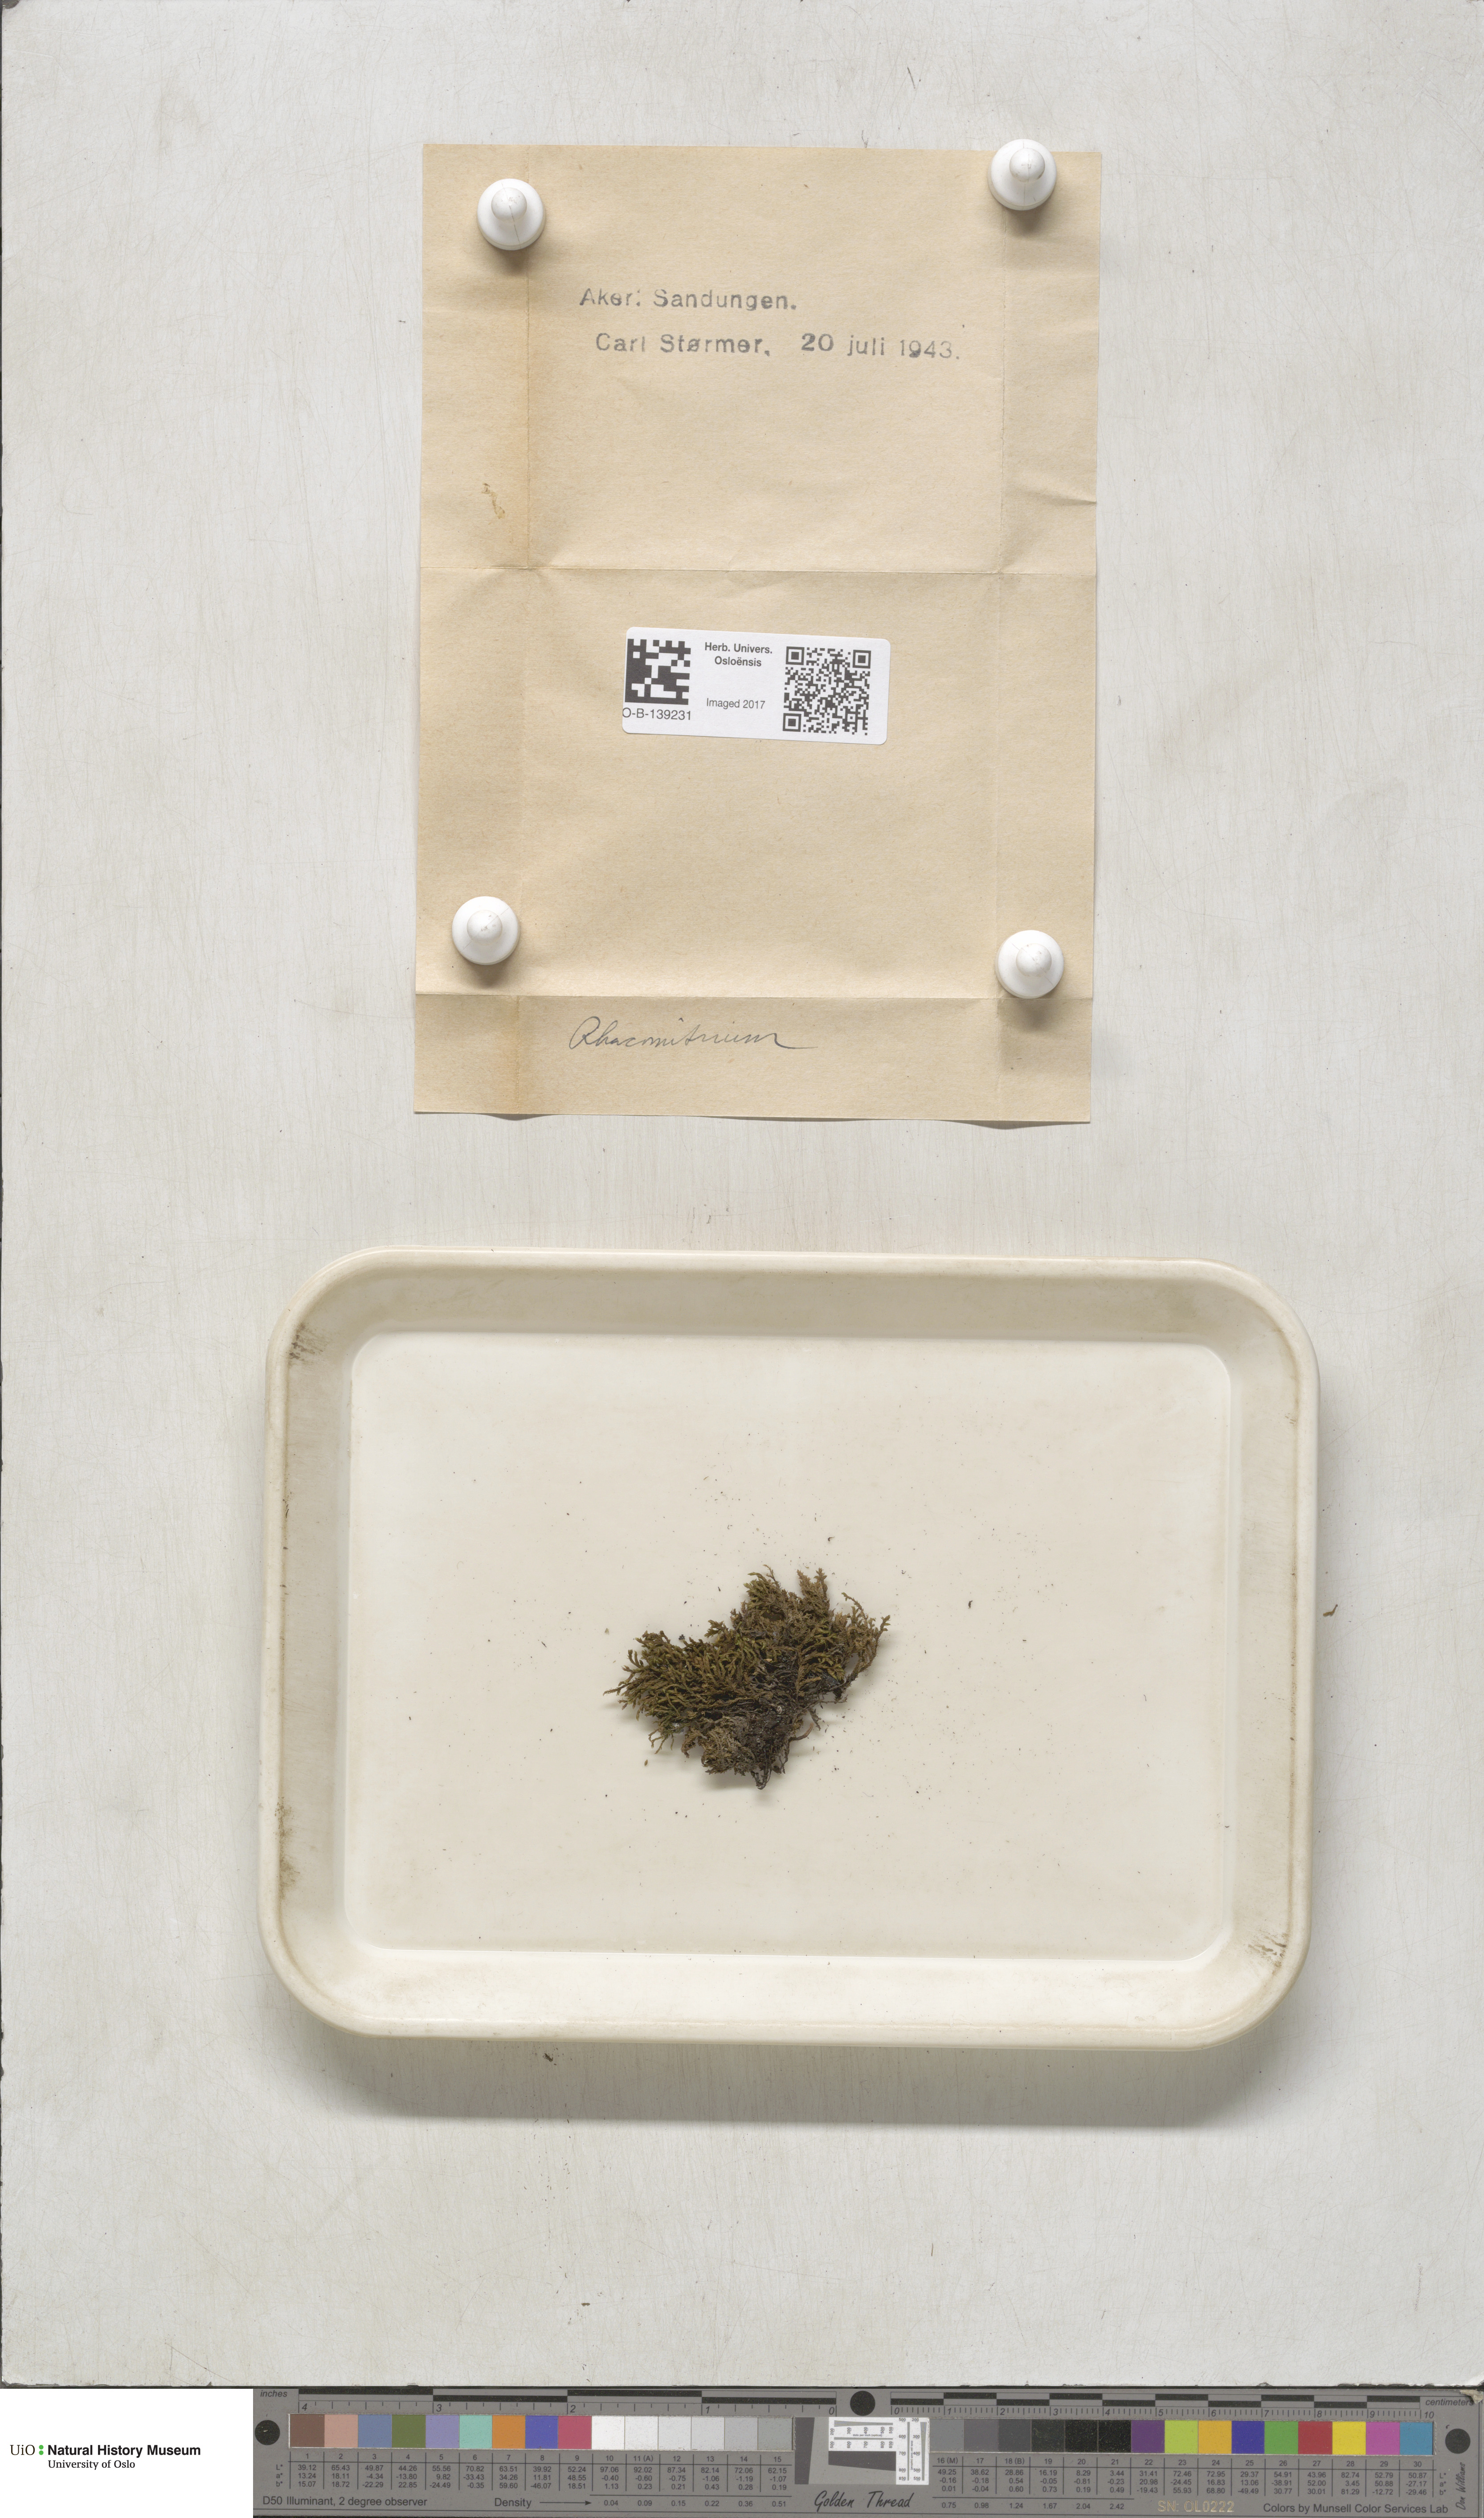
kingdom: Plantae
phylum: Bryophyta
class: Bryopsida
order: Grimmiales
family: Grimmiaceae
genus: Racomitrium
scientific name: Racomitrium
